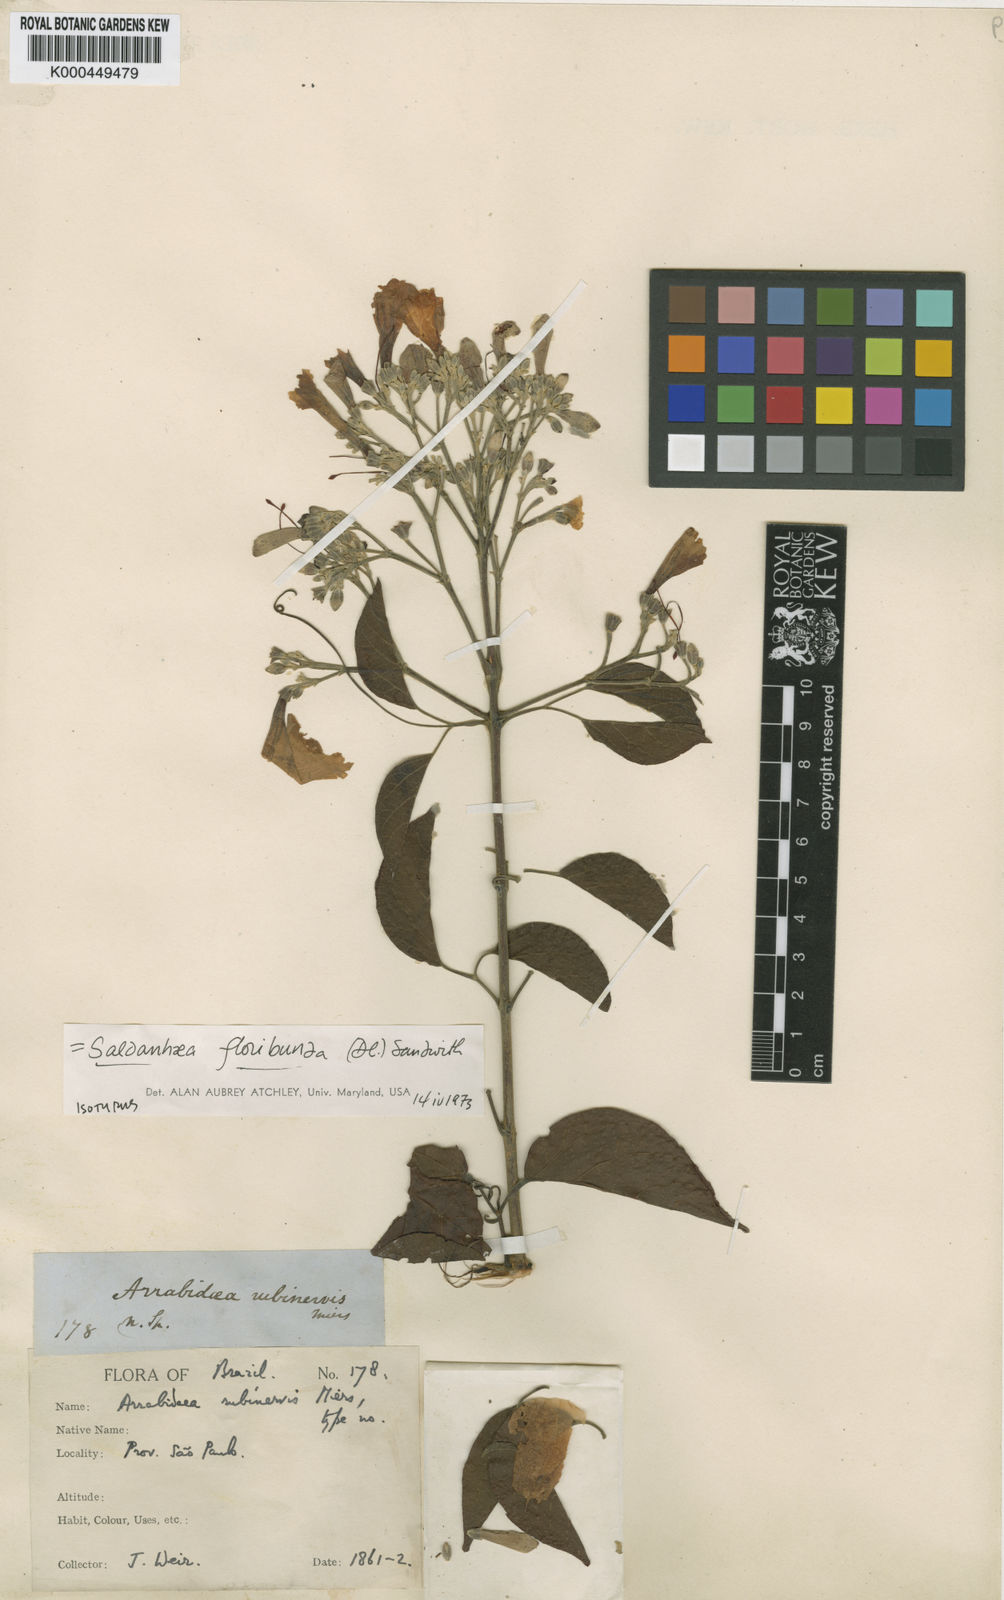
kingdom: Plantae
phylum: Tracheophyta
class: Magnoliopsida
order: Lamiales
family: Bignoniaceae
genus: Cuspidaria
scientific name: Cuspidaria floribunda
